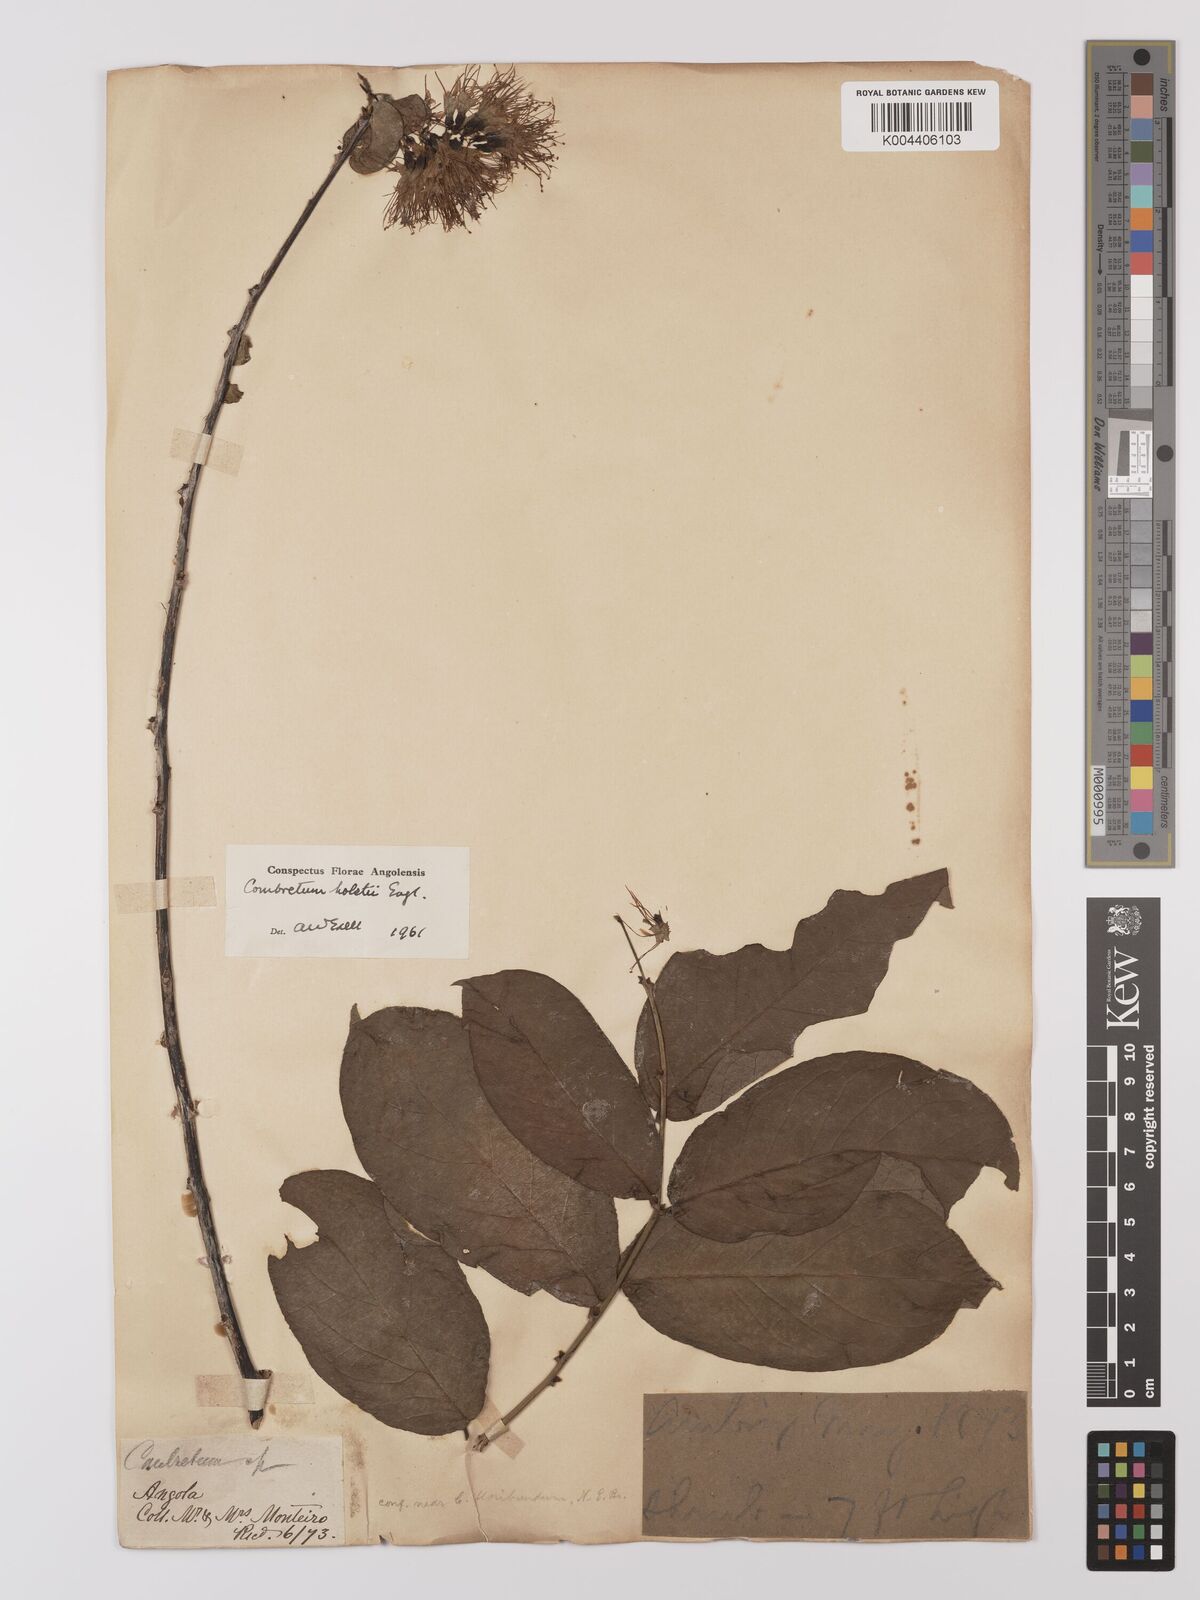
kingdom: Plantae
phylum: Tracheophyta
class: Magnoliopsida
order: Myrtales
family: Combretaceae
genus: Combretum
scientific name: Combretum holstii
